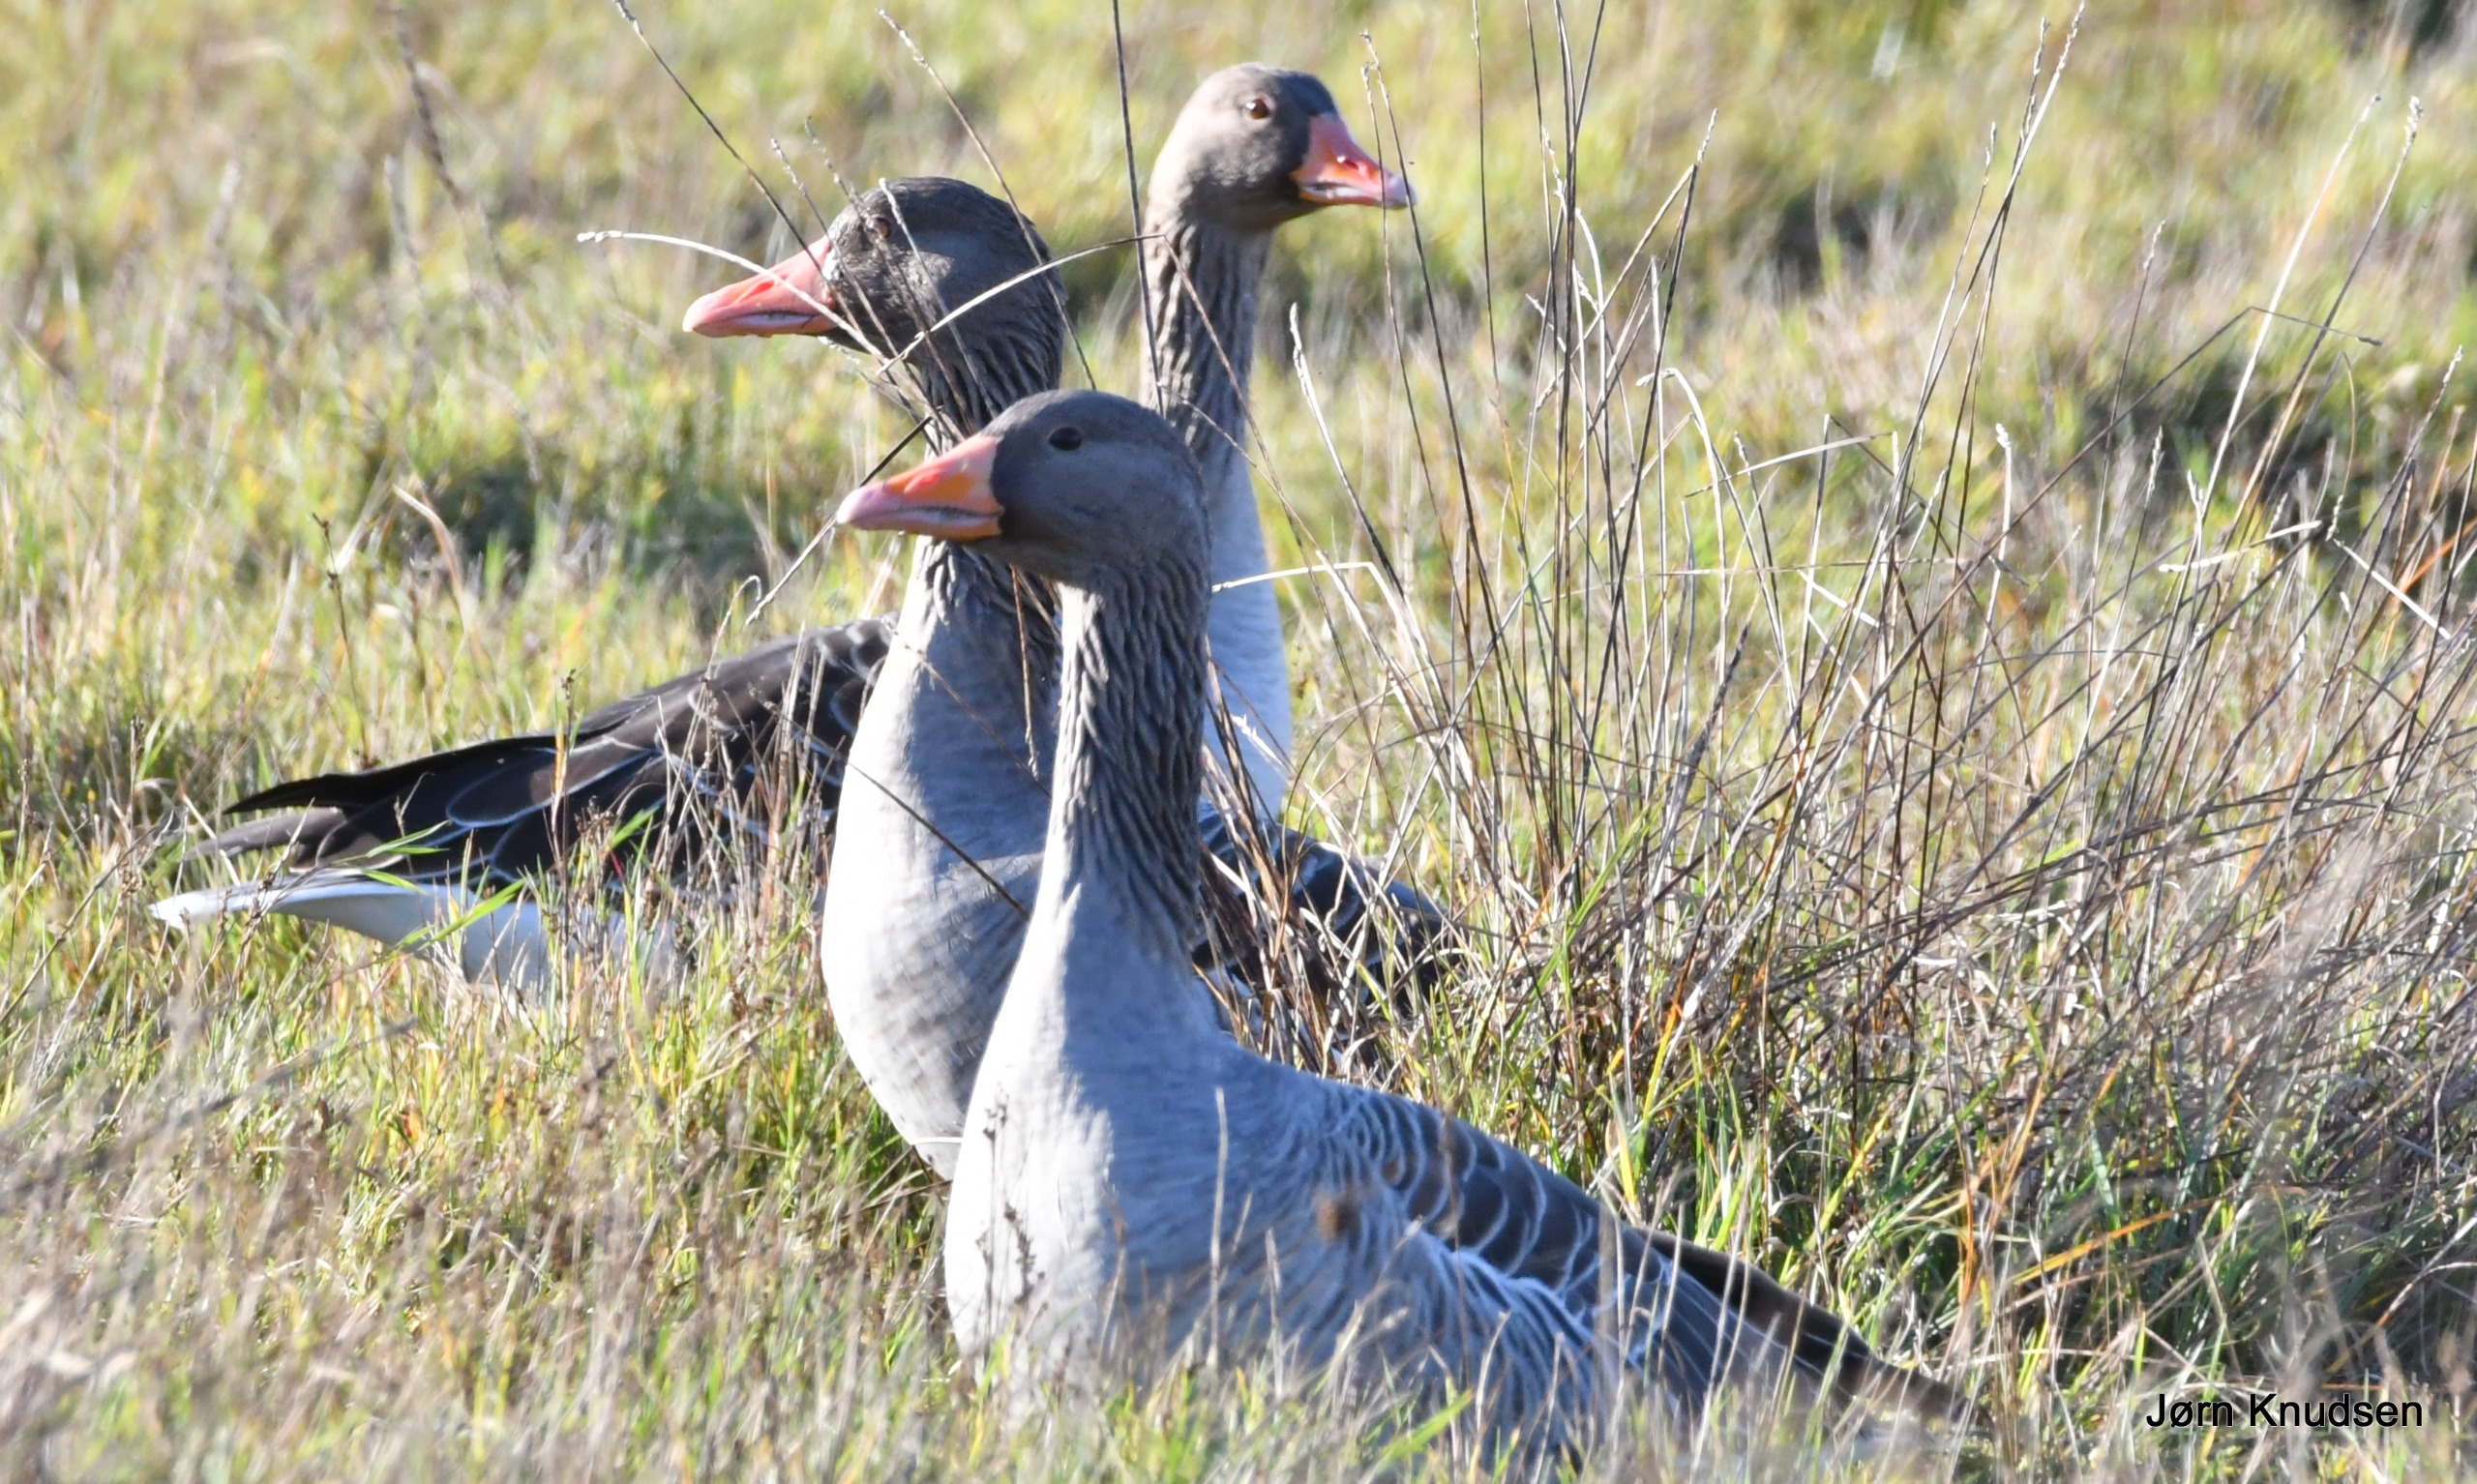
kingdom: Animalia
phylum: Chordata
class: Aves
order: Anseriformes
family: Anatidae
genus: Anser
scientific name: Anser anser
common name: Grågås
